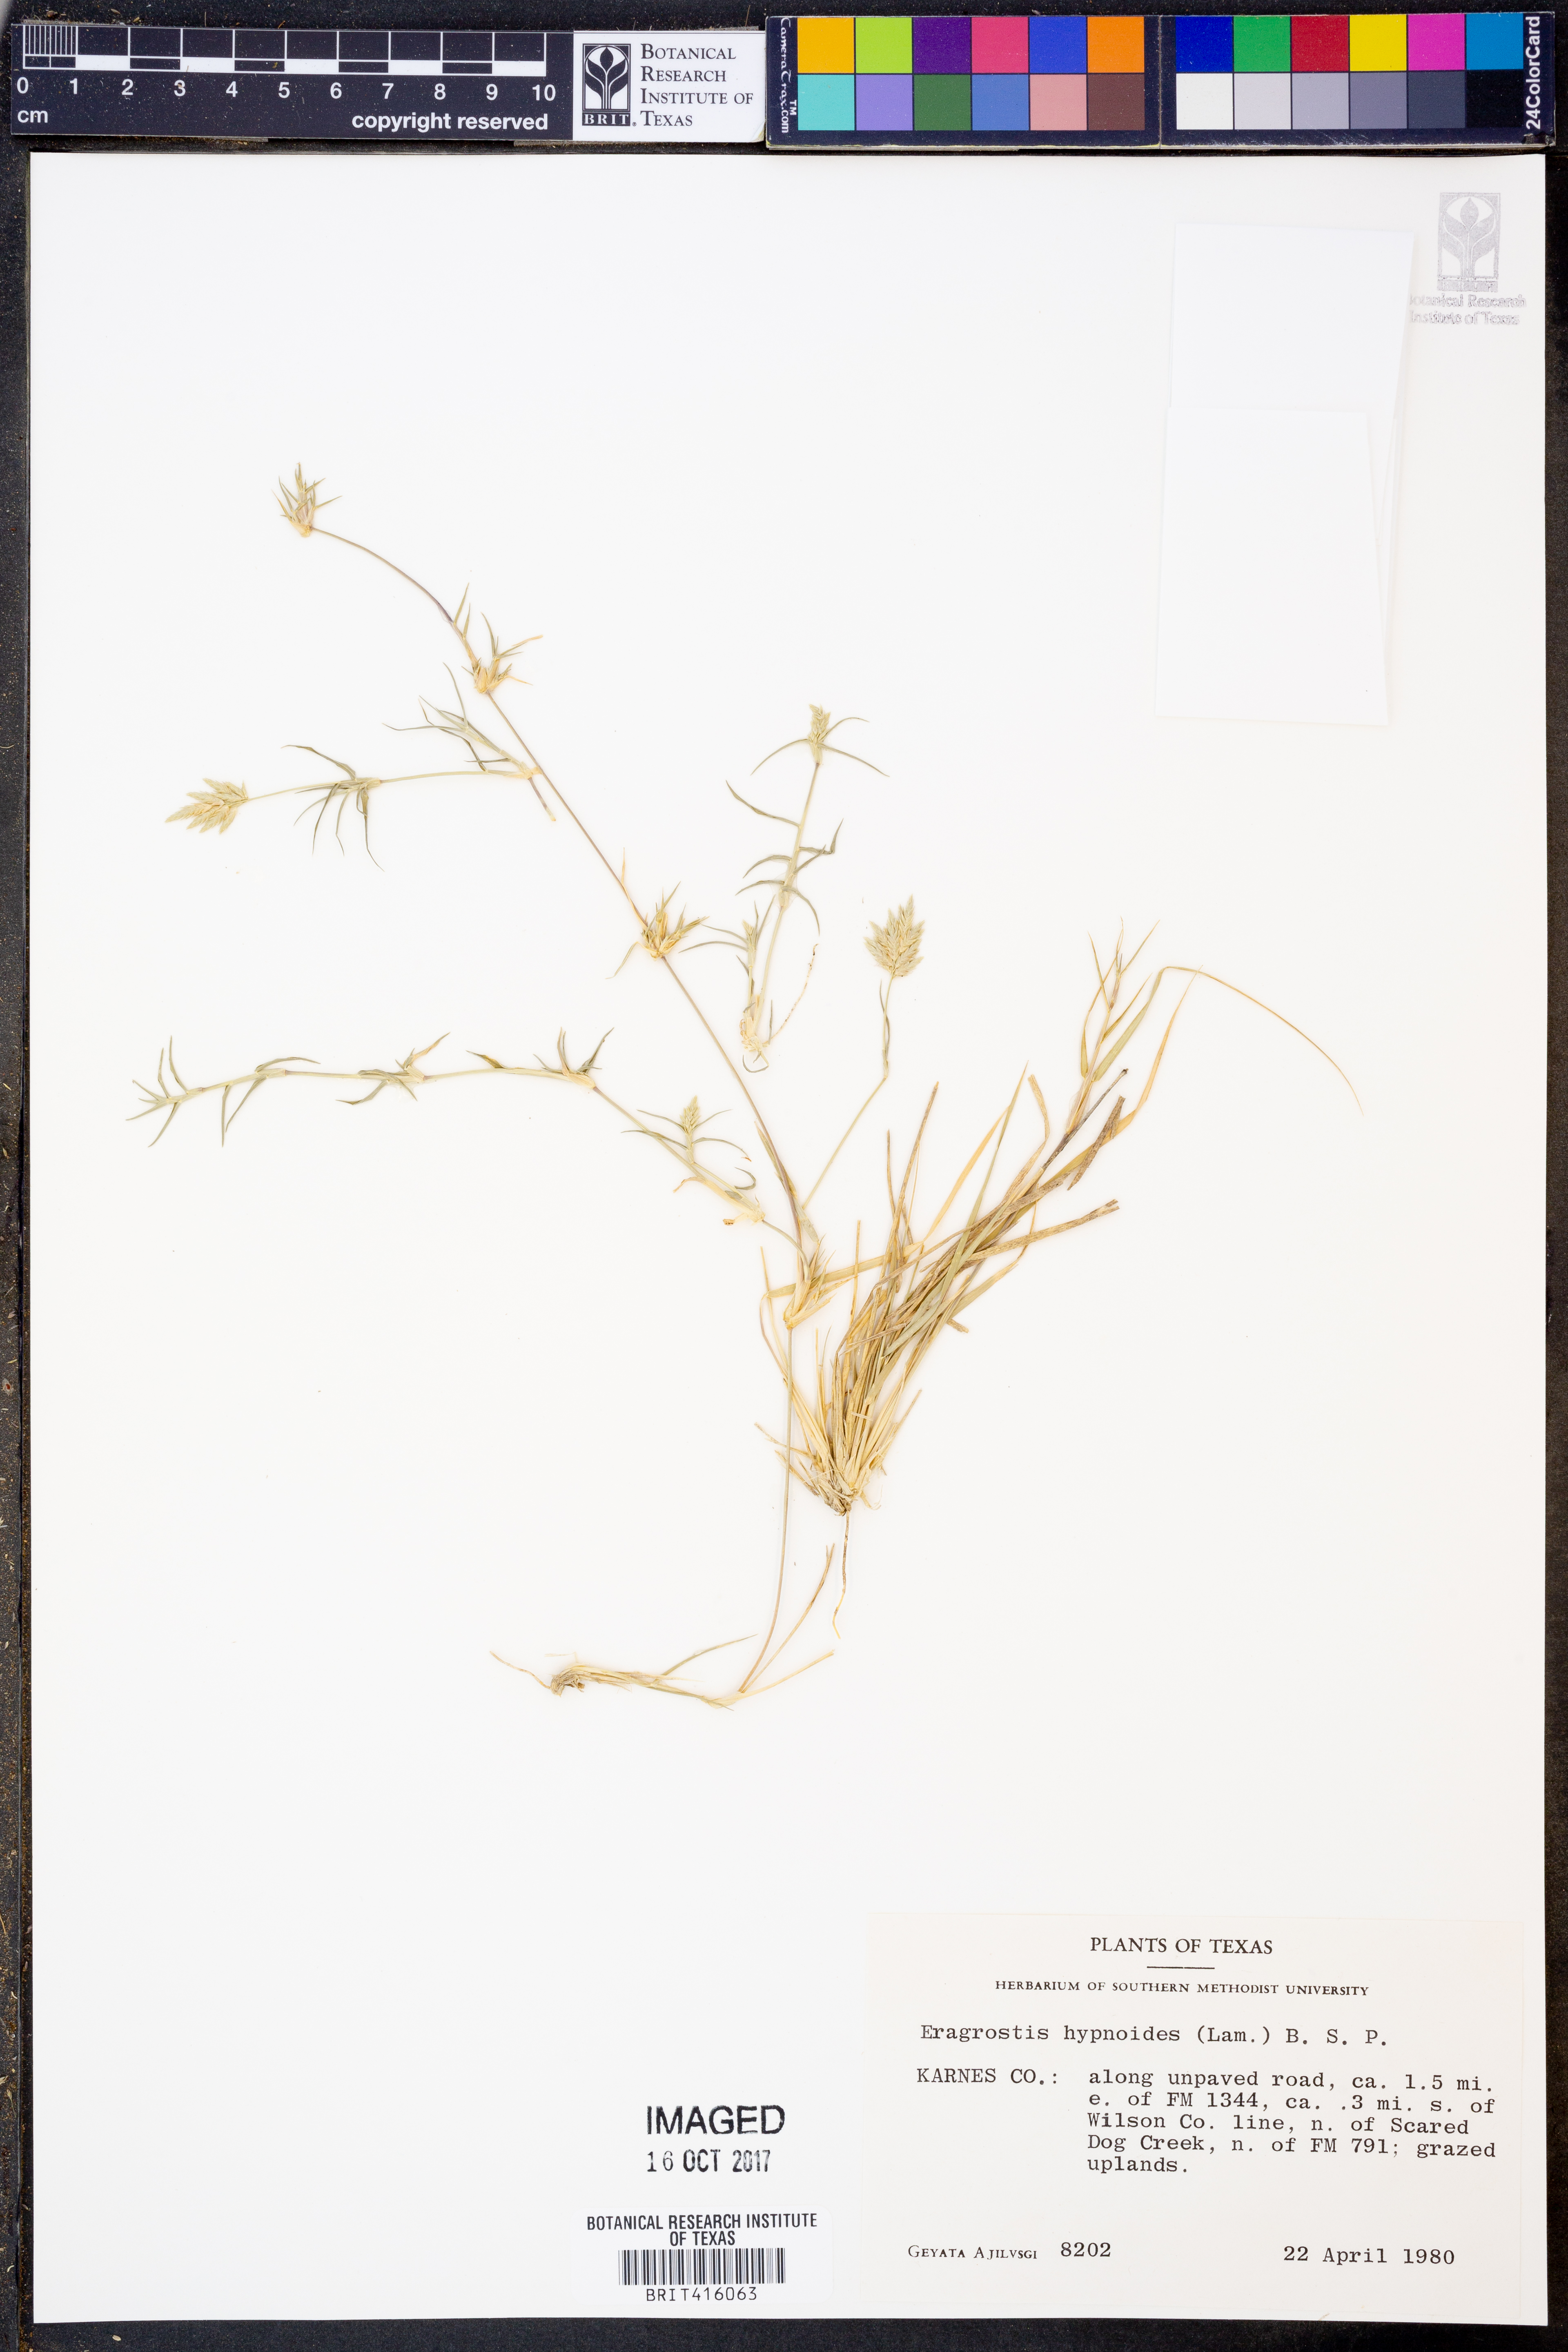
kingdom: Plantae
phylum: Tracheophyta
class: Liliopsida
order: Poales
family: Poaceae
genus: Eragrostis
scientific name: Eragrostis hypnoides
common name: Creeping love grass
